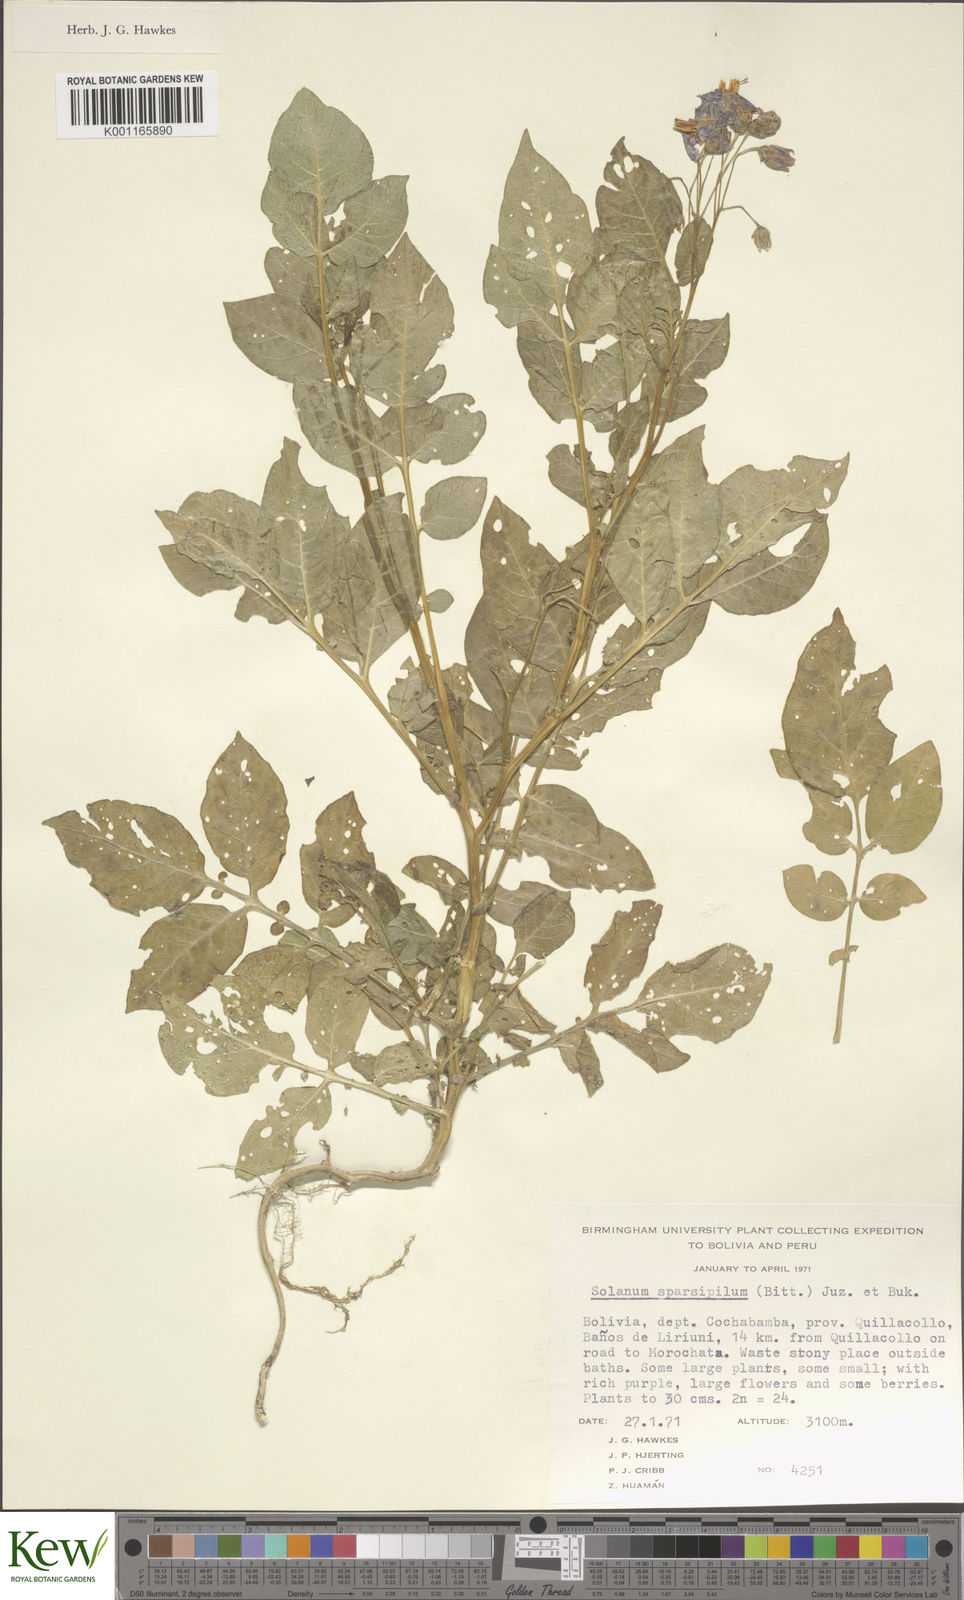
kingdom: Plantae
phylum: Tracheophyta
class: Magnoliopsida
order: Solanales
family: Solanaceae
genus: Solanum
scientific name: Solanum brevicaule
